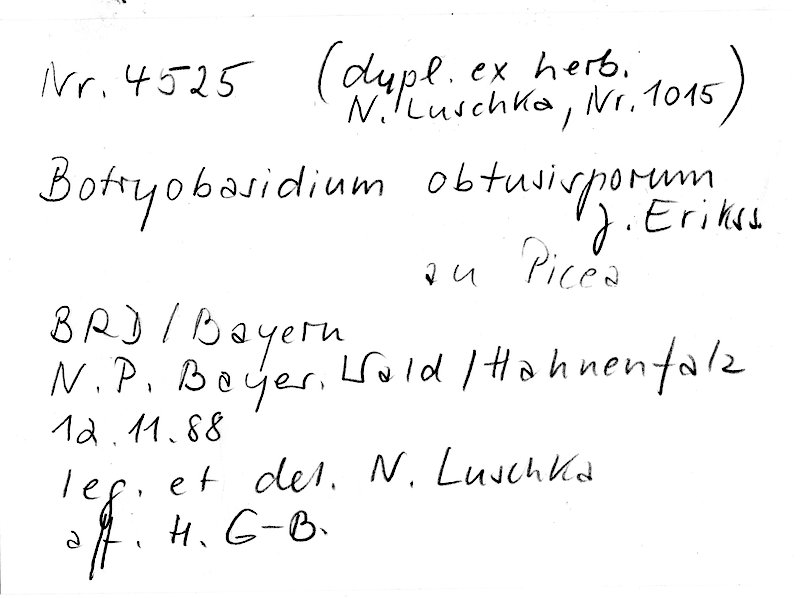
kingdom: Plantae
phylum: Tracheophyta
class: Pinopsida
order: Pinales
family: Pinaceae
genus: Picea
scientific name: Picea
